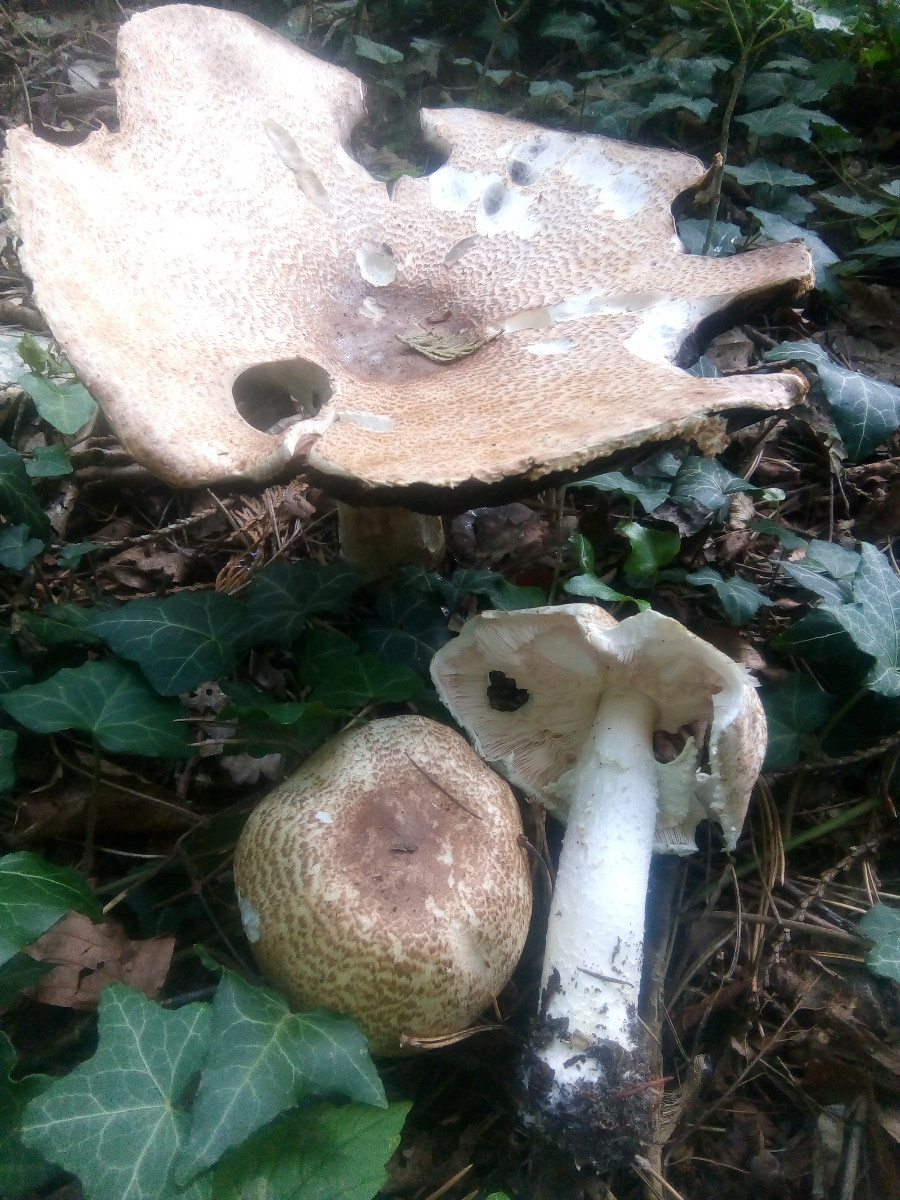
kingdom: Fungi
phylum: Basidiomycota
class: Agaricomycetes
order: Agaricales
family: Agaricaceae
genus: Agaricus
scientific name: Agaricus augustus
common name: prægtig champignon
